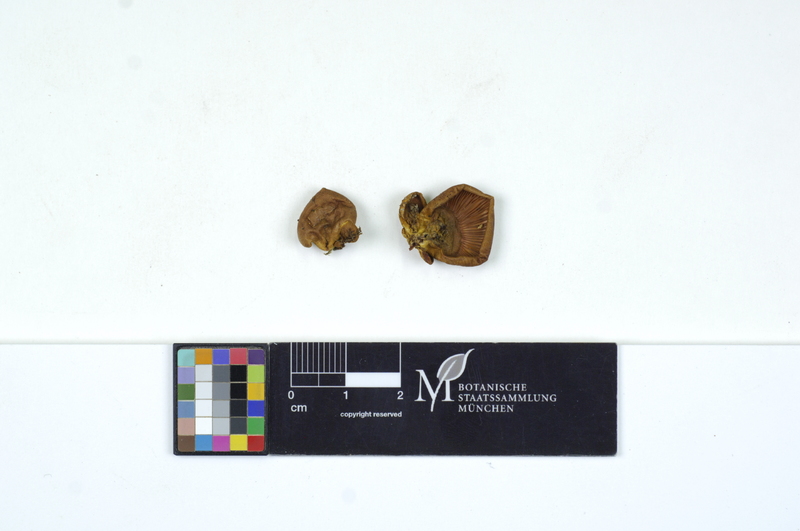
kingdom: Plantae
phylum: Tracheophyta
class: Magnoliopsida
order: Fagales
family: Fagaceae
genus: Fagus
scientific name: Fagus sylvatica
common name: Beech
